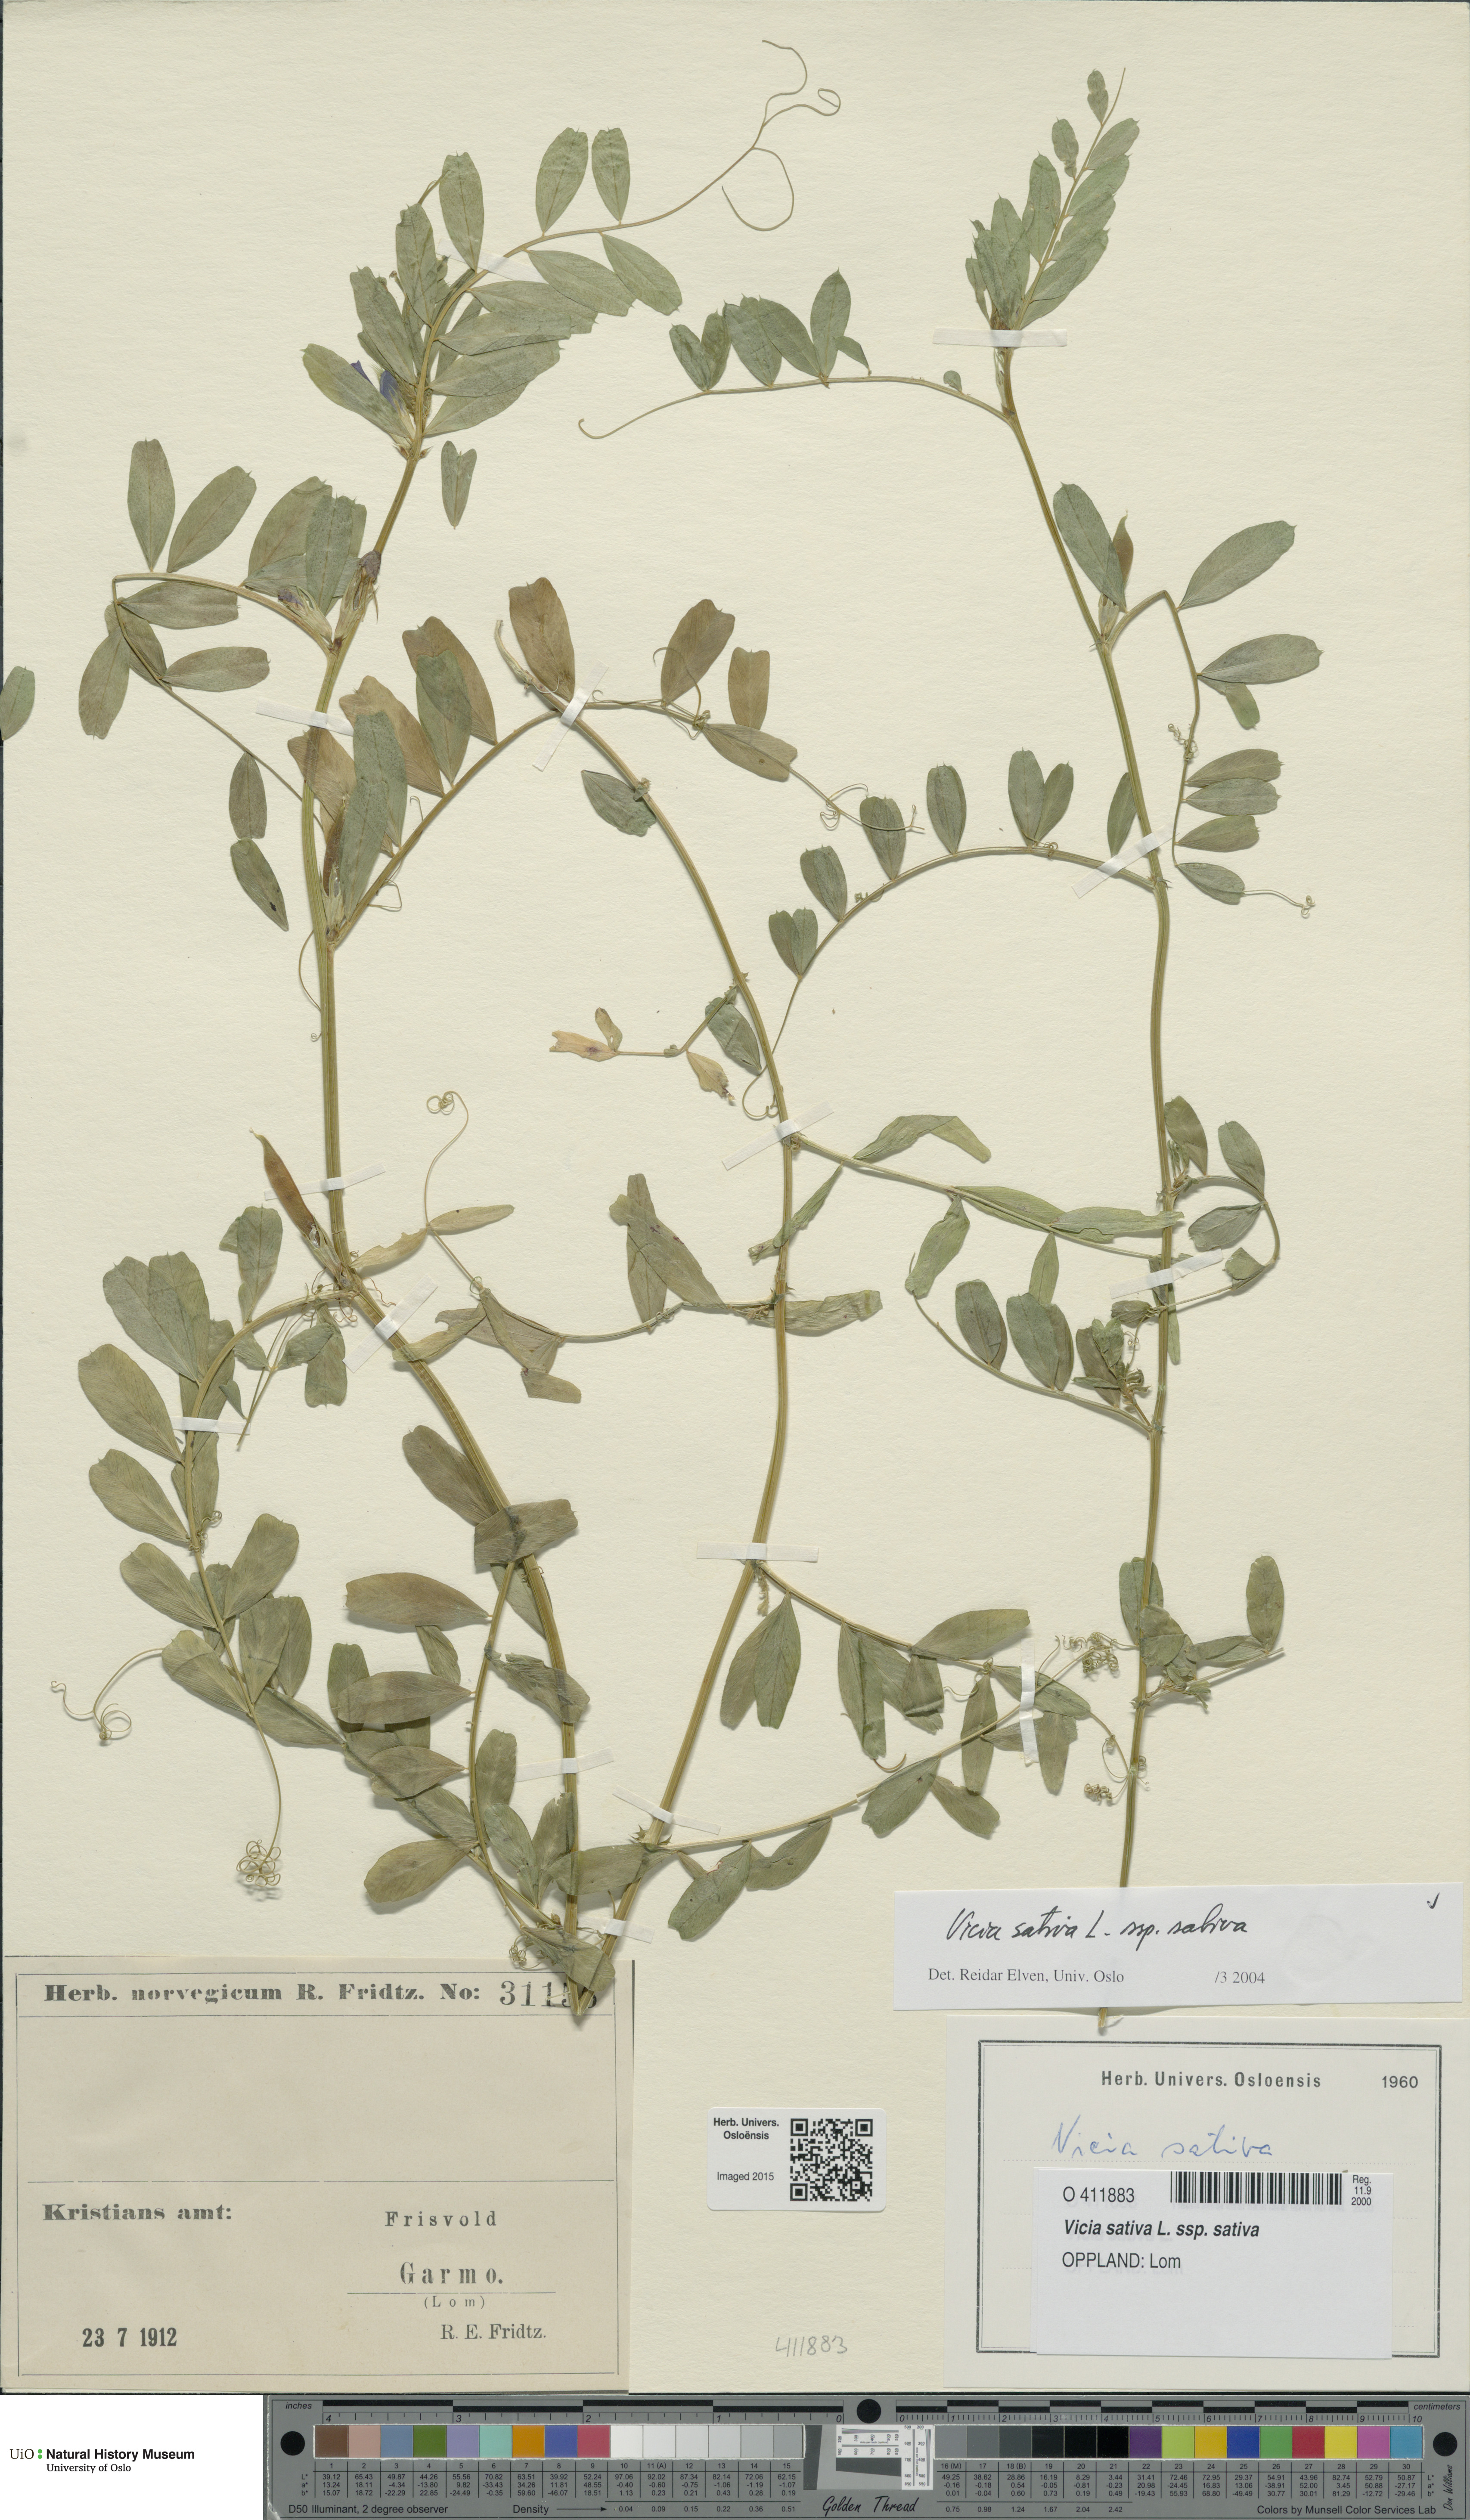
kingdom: Plantae
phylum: Tracheophyta
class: Magnoliopsida
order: Fabales
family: Fabaceae
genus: Vicia
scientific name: Vicia sativa
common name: Garden vetch
